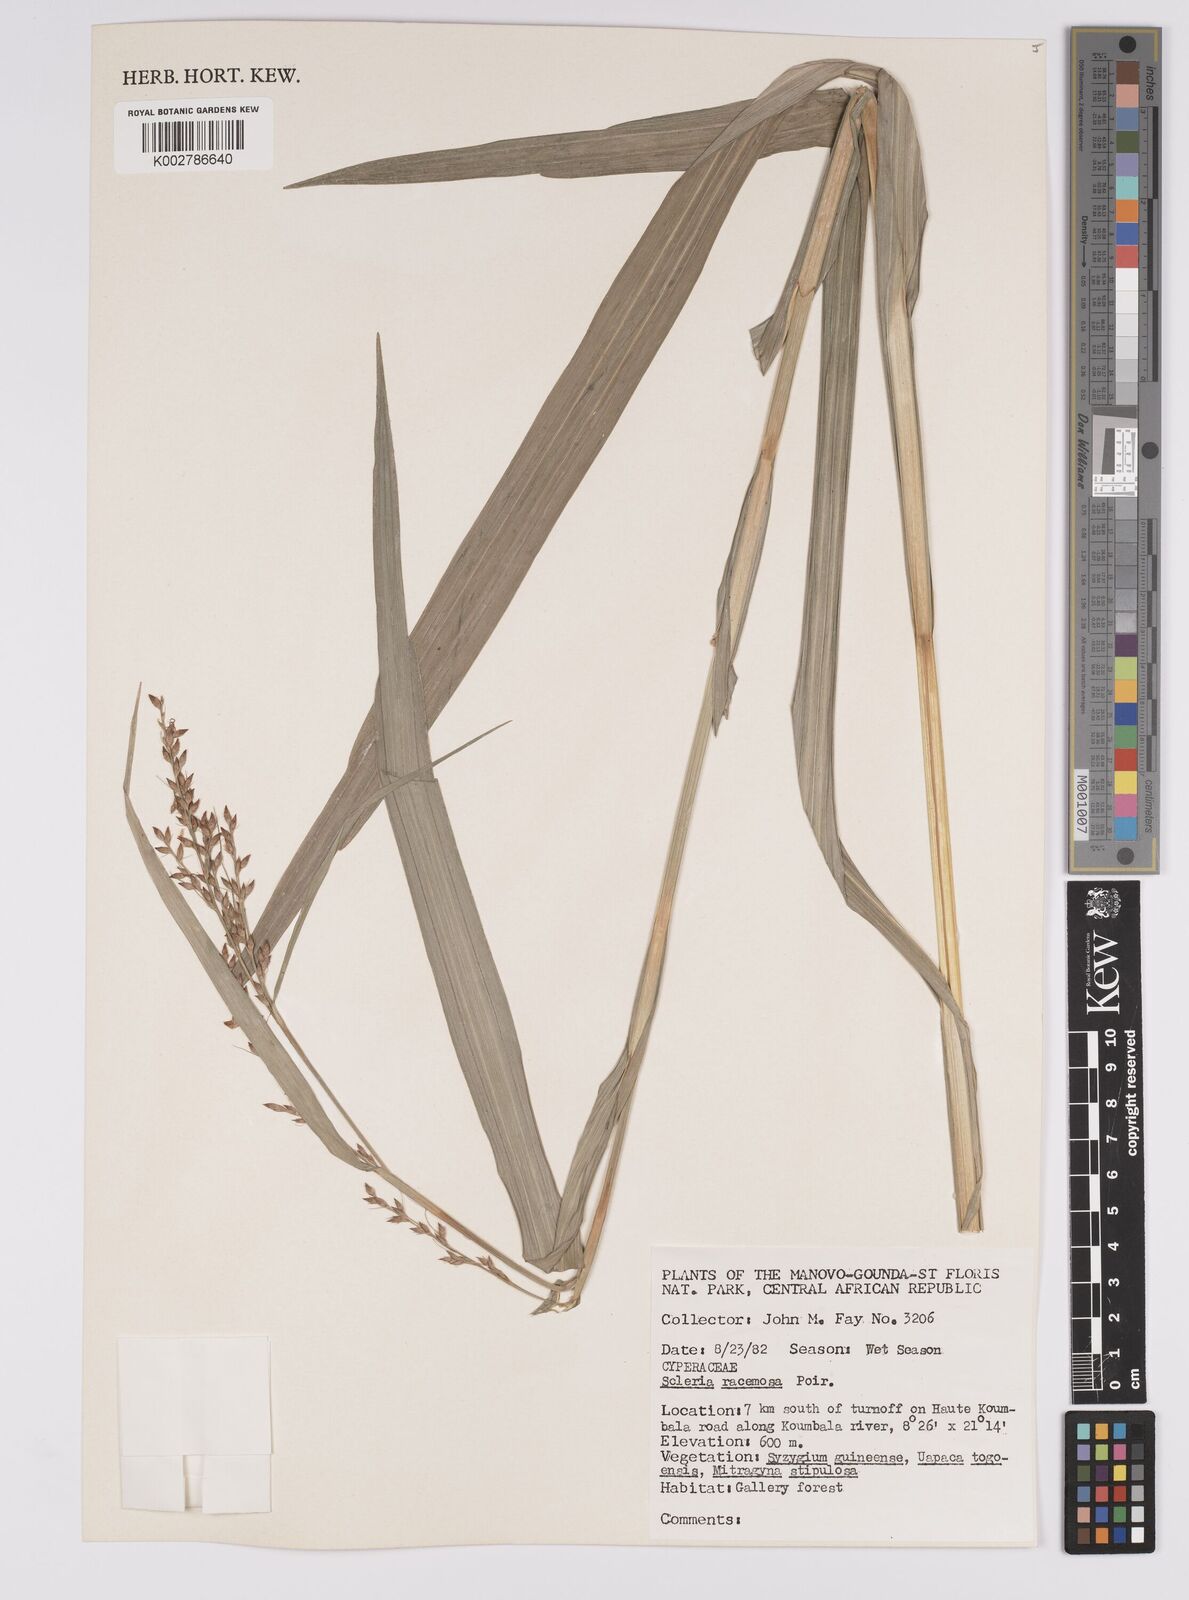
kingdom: Plantae
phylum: Tracheophyta
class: Liliopsida
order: Poales
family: Cyperaceae
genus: Scleria
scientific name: Scleria racemosa
